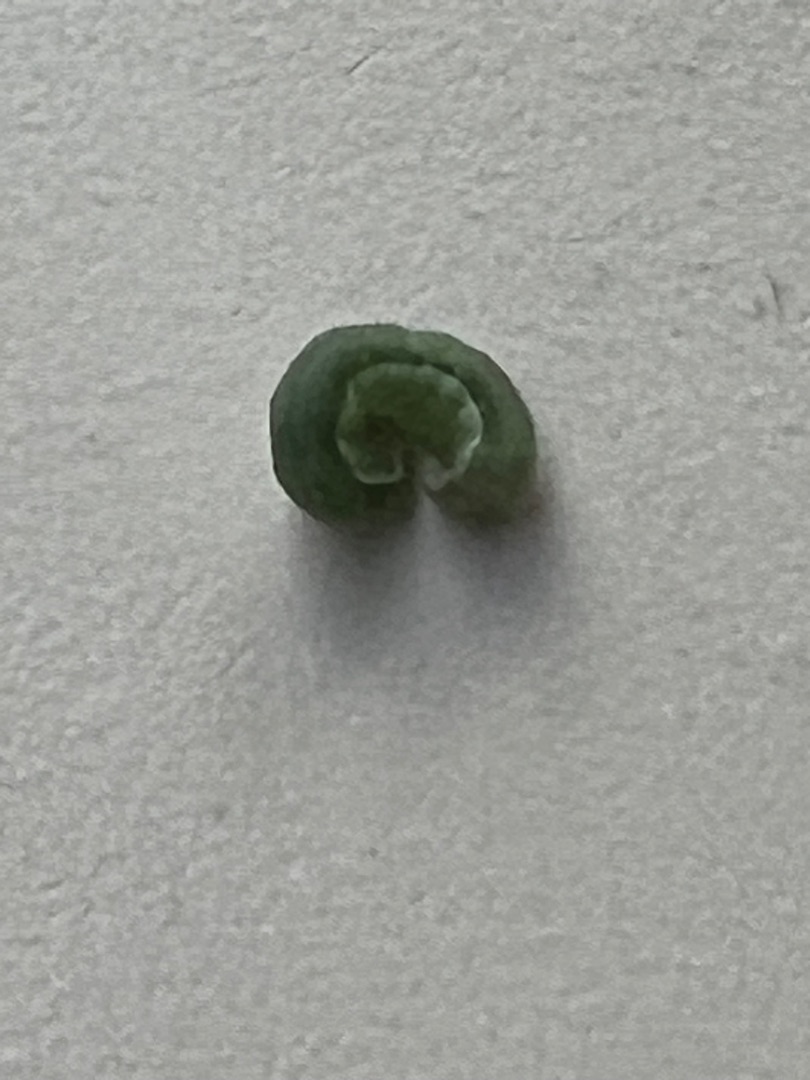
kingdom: Plantae
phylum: Tracheophyta
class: Magnoliopsida
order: Fabales
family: Fabaceae
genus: Medicago
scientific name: Medicago
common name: Sneglebælgslægten
